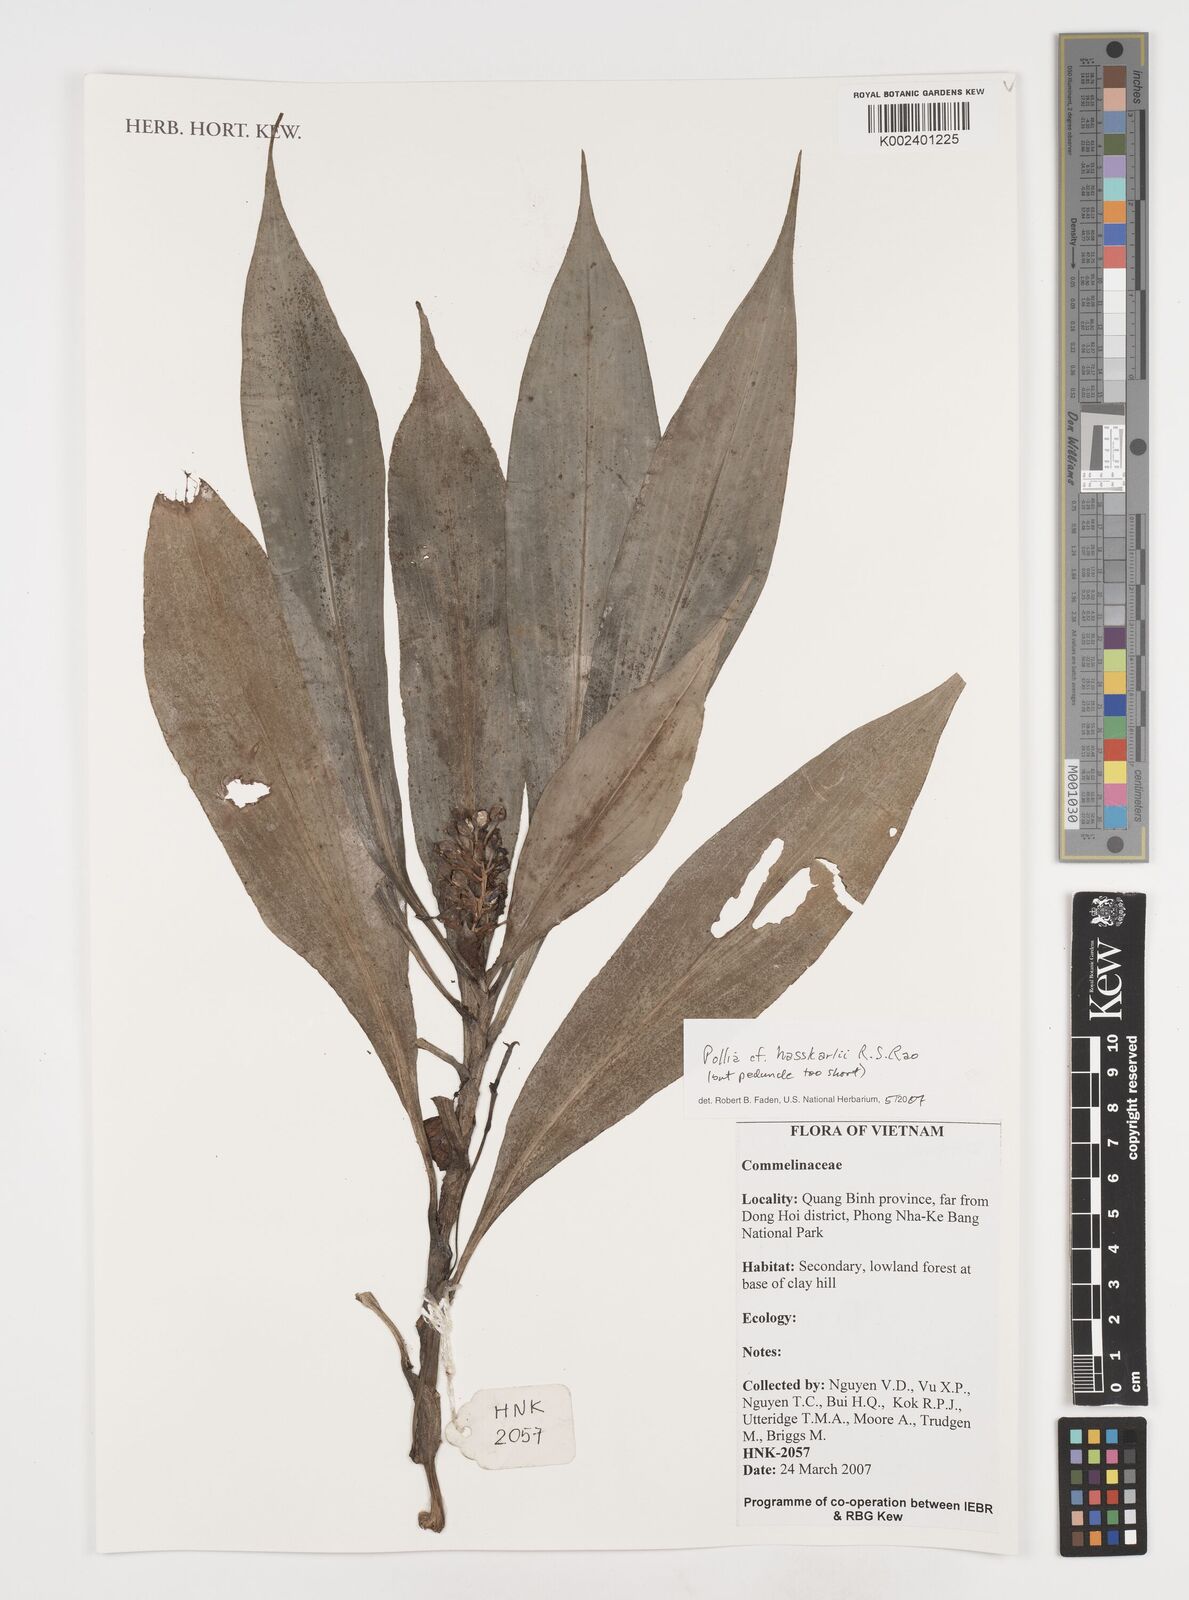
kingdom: Plantae
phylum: Tracheophyta
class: Liliopsida
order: Commelinales
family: Commelinaceae
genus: Pollia
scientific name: Pollia hasskarlii
